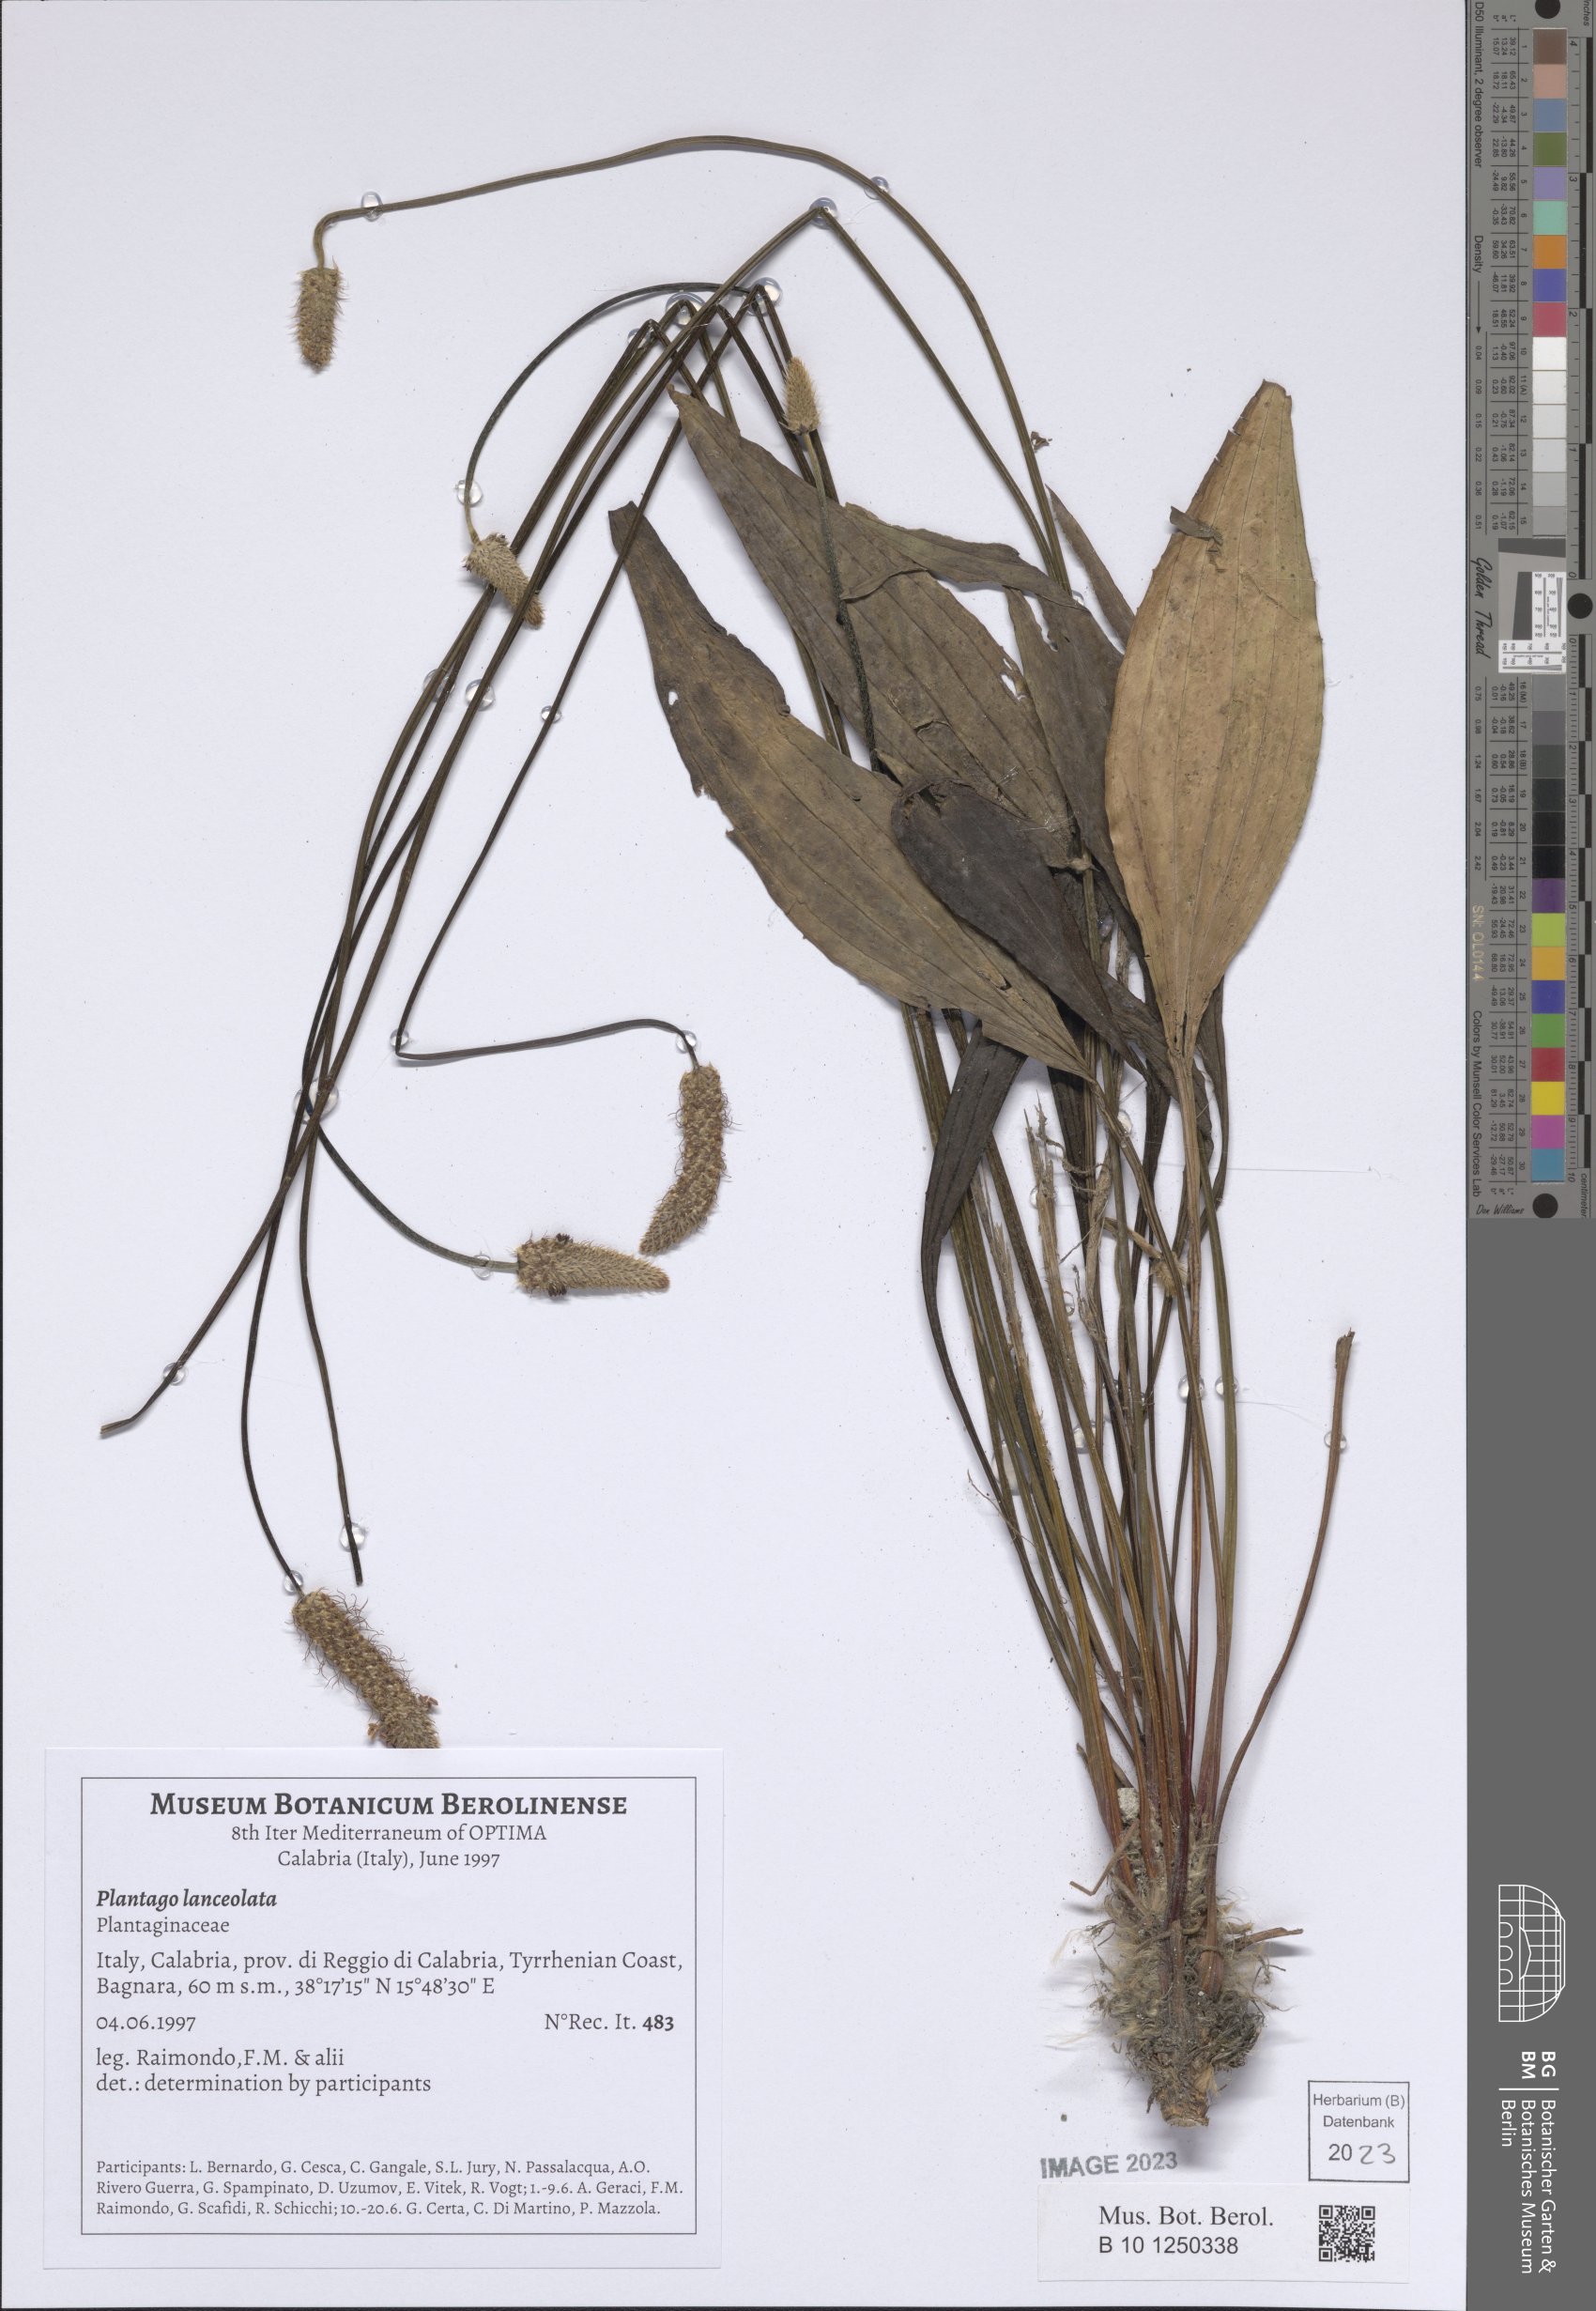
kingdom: Plantae
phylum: Tracheophyta
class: Magnoliopsida
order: Lamiales
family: Plantaginaceae
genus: Plantago
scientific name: Plantago lanceolata
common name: Ribwort plantain
